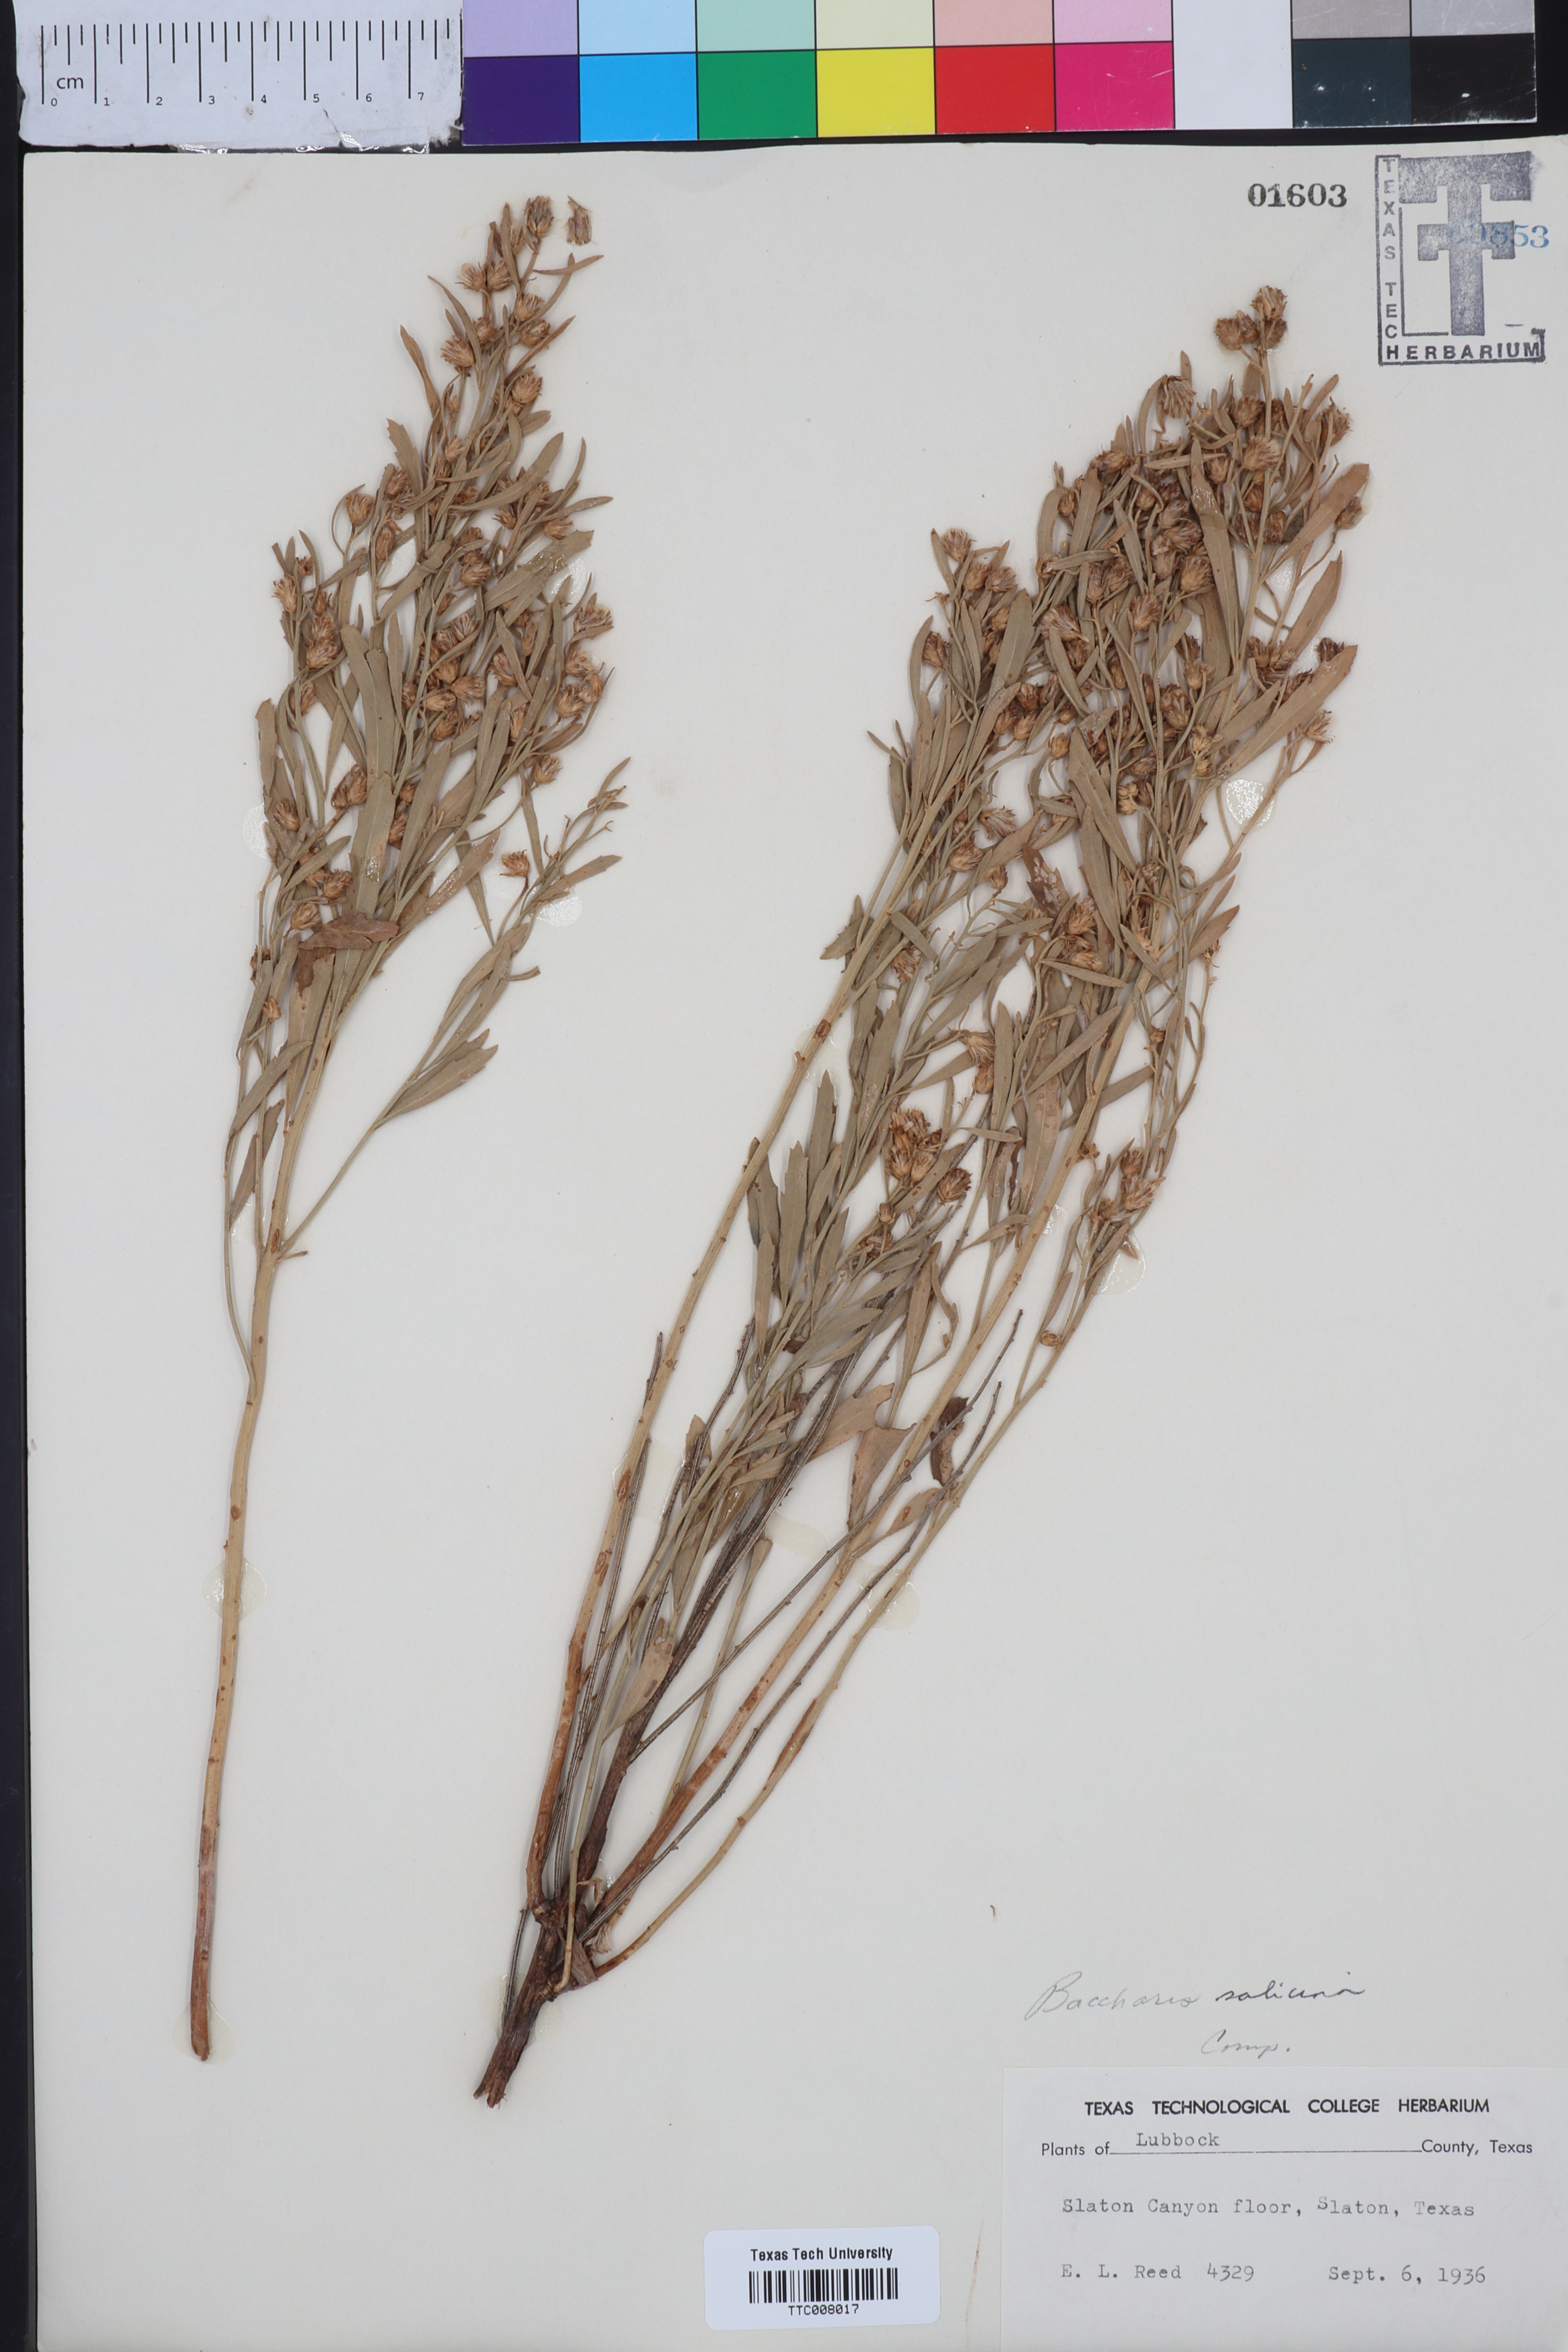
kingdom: Plantae
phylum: Tracheophyta
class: Magnoliopsida
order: Asterales
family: Asteraceae
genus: Baccharis
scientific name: Baccharis salicina
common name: Willow baccharis
